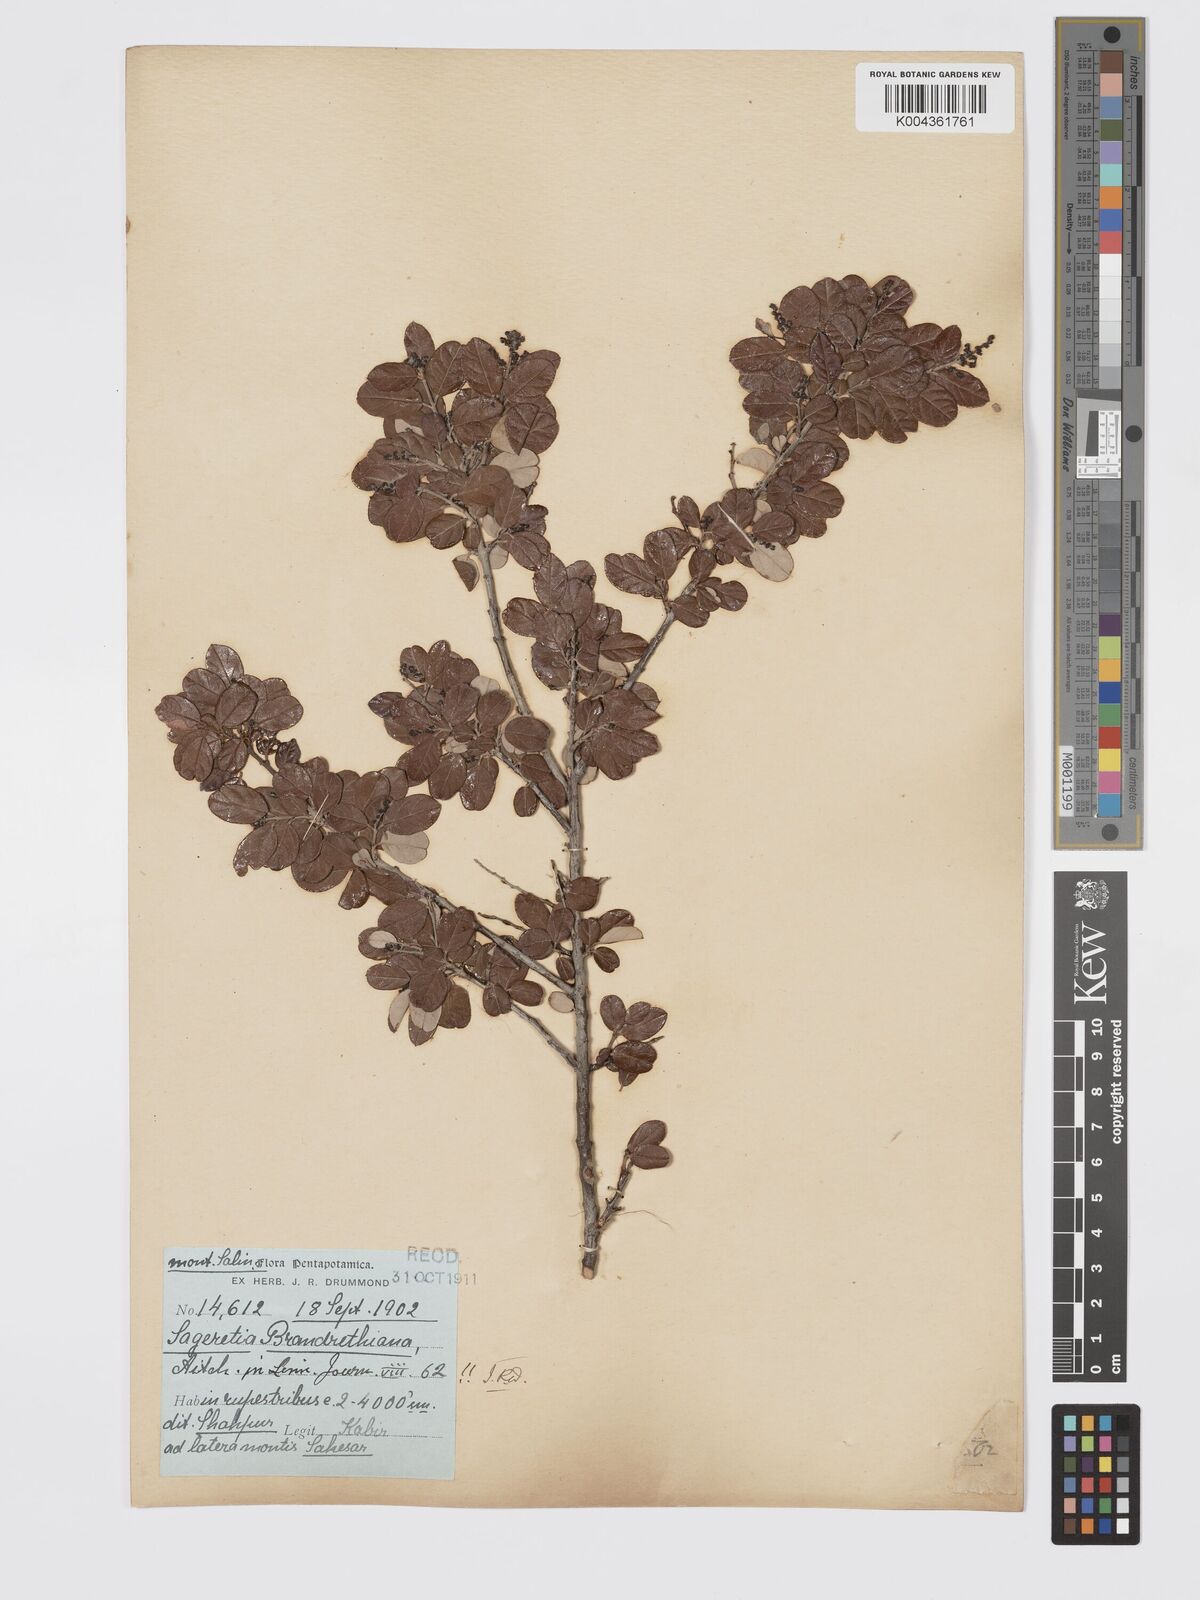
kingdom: Plantae
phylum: Tracheophyta
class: Magnoliopsida
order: Rosales
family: Rhamnaceae
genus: Sageretia
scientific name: Sageretia brandrethiana
